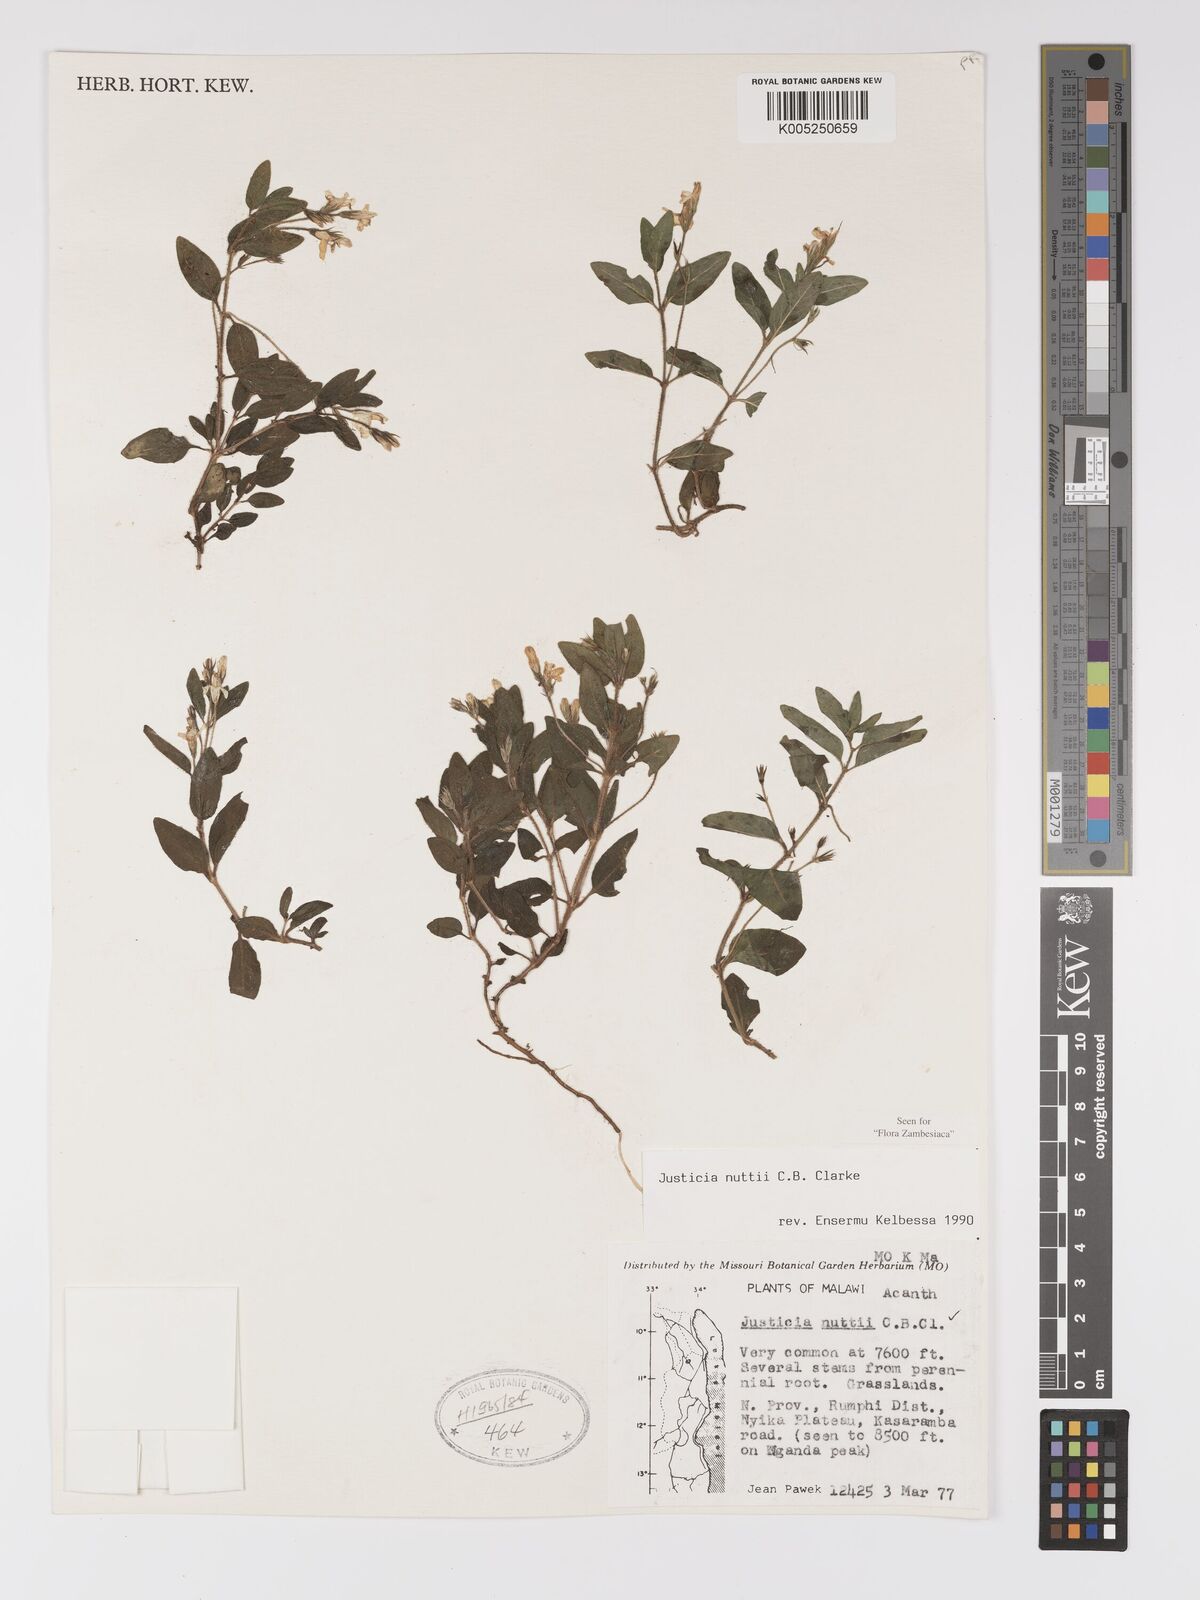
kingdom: Plantae
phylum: Tracheophyta
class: Magnoliopsida
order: Lamiales
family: Acanthaceae
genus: Justicia
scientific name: Justicia nuttii
